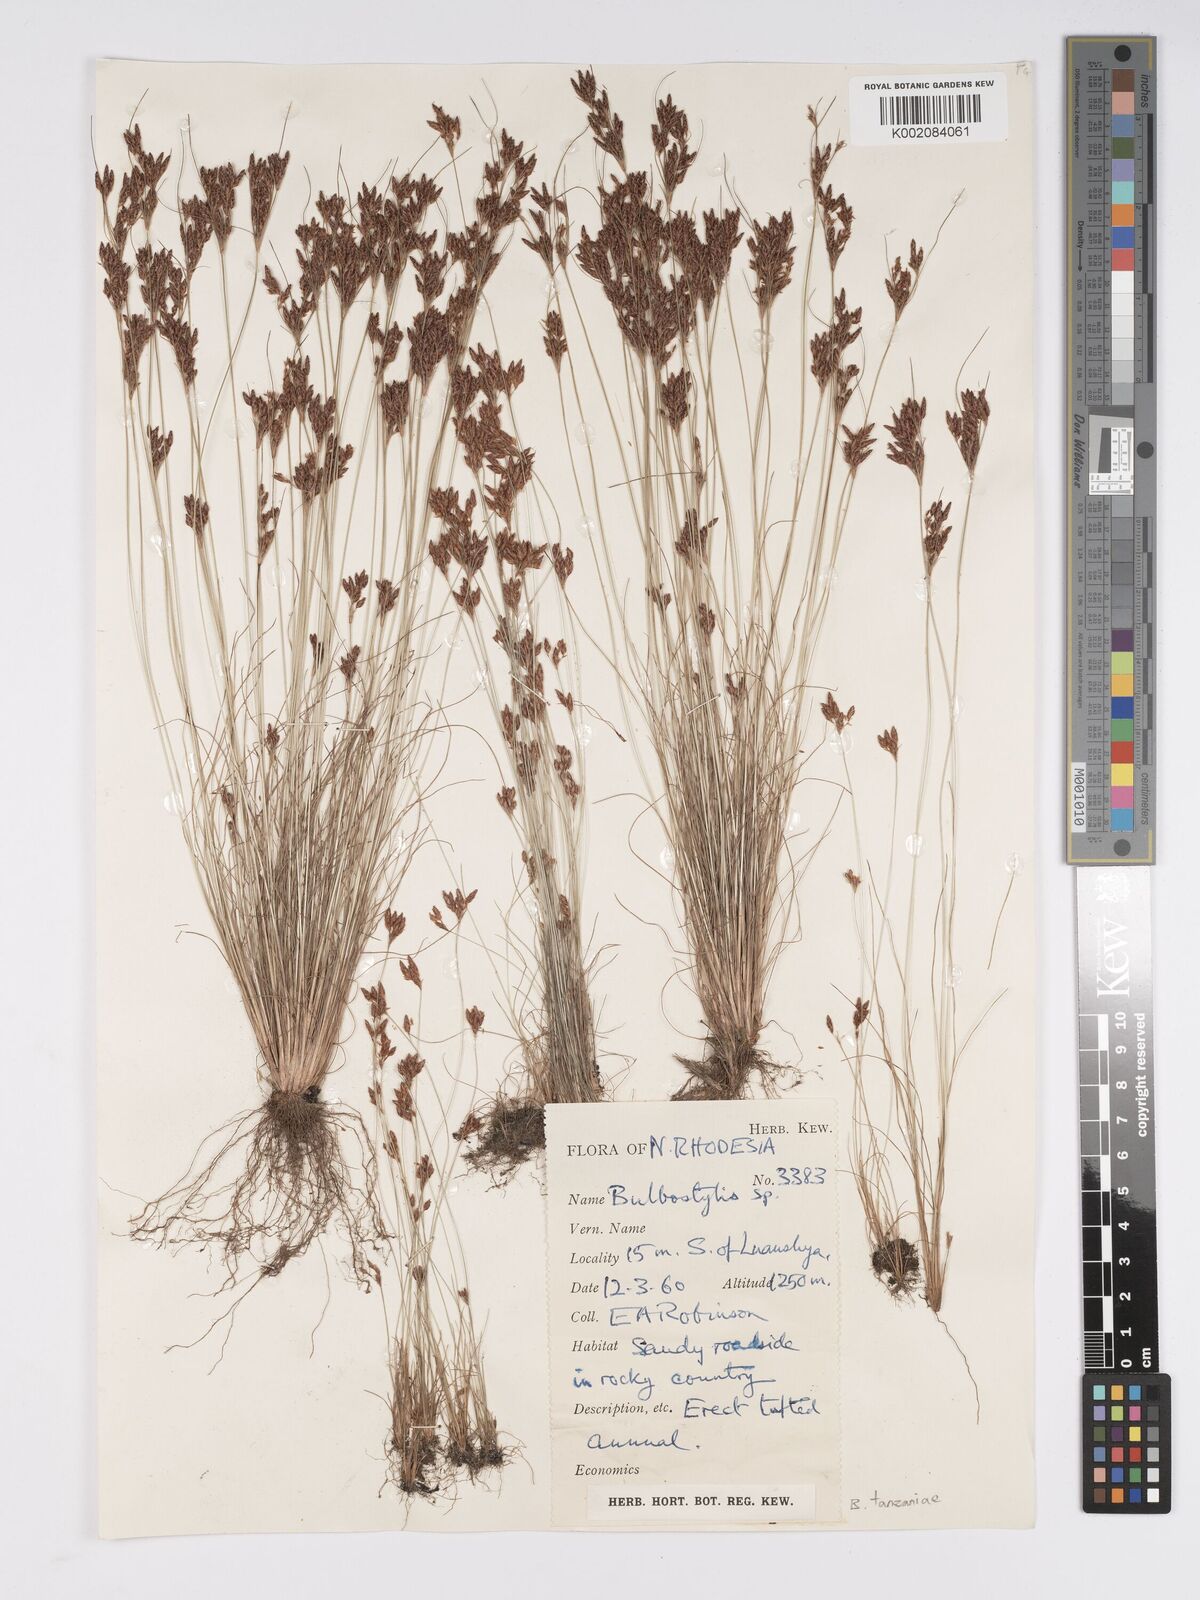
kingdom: Plantae
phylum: Tracheophyta
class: Liliopsida
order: Poales
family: Cyperaceae
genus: Bulbostylis
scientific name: Bulbostylis tanzaniae
